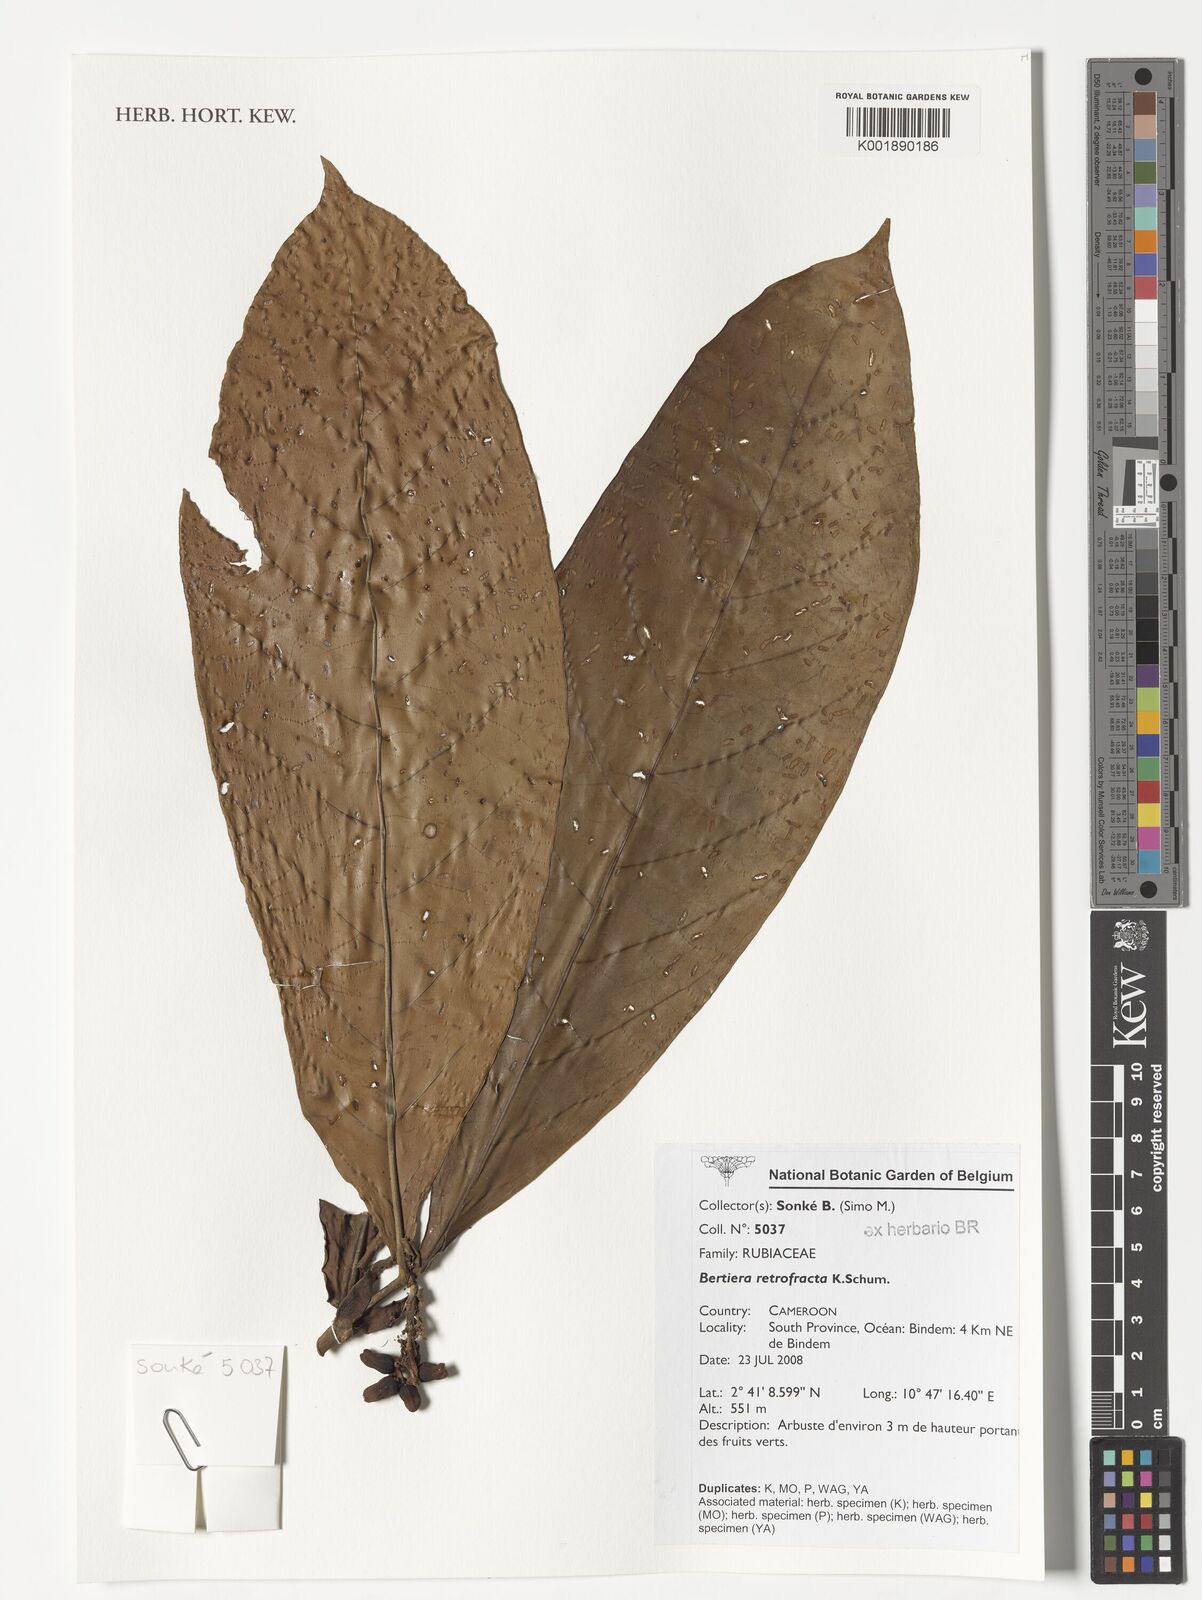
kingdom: Plantae
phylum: Tracheophyta
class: Magnoliopsida
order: Gentianales
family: Rubiaceae
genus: Bertiera
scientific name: Bertiera retrofracta
